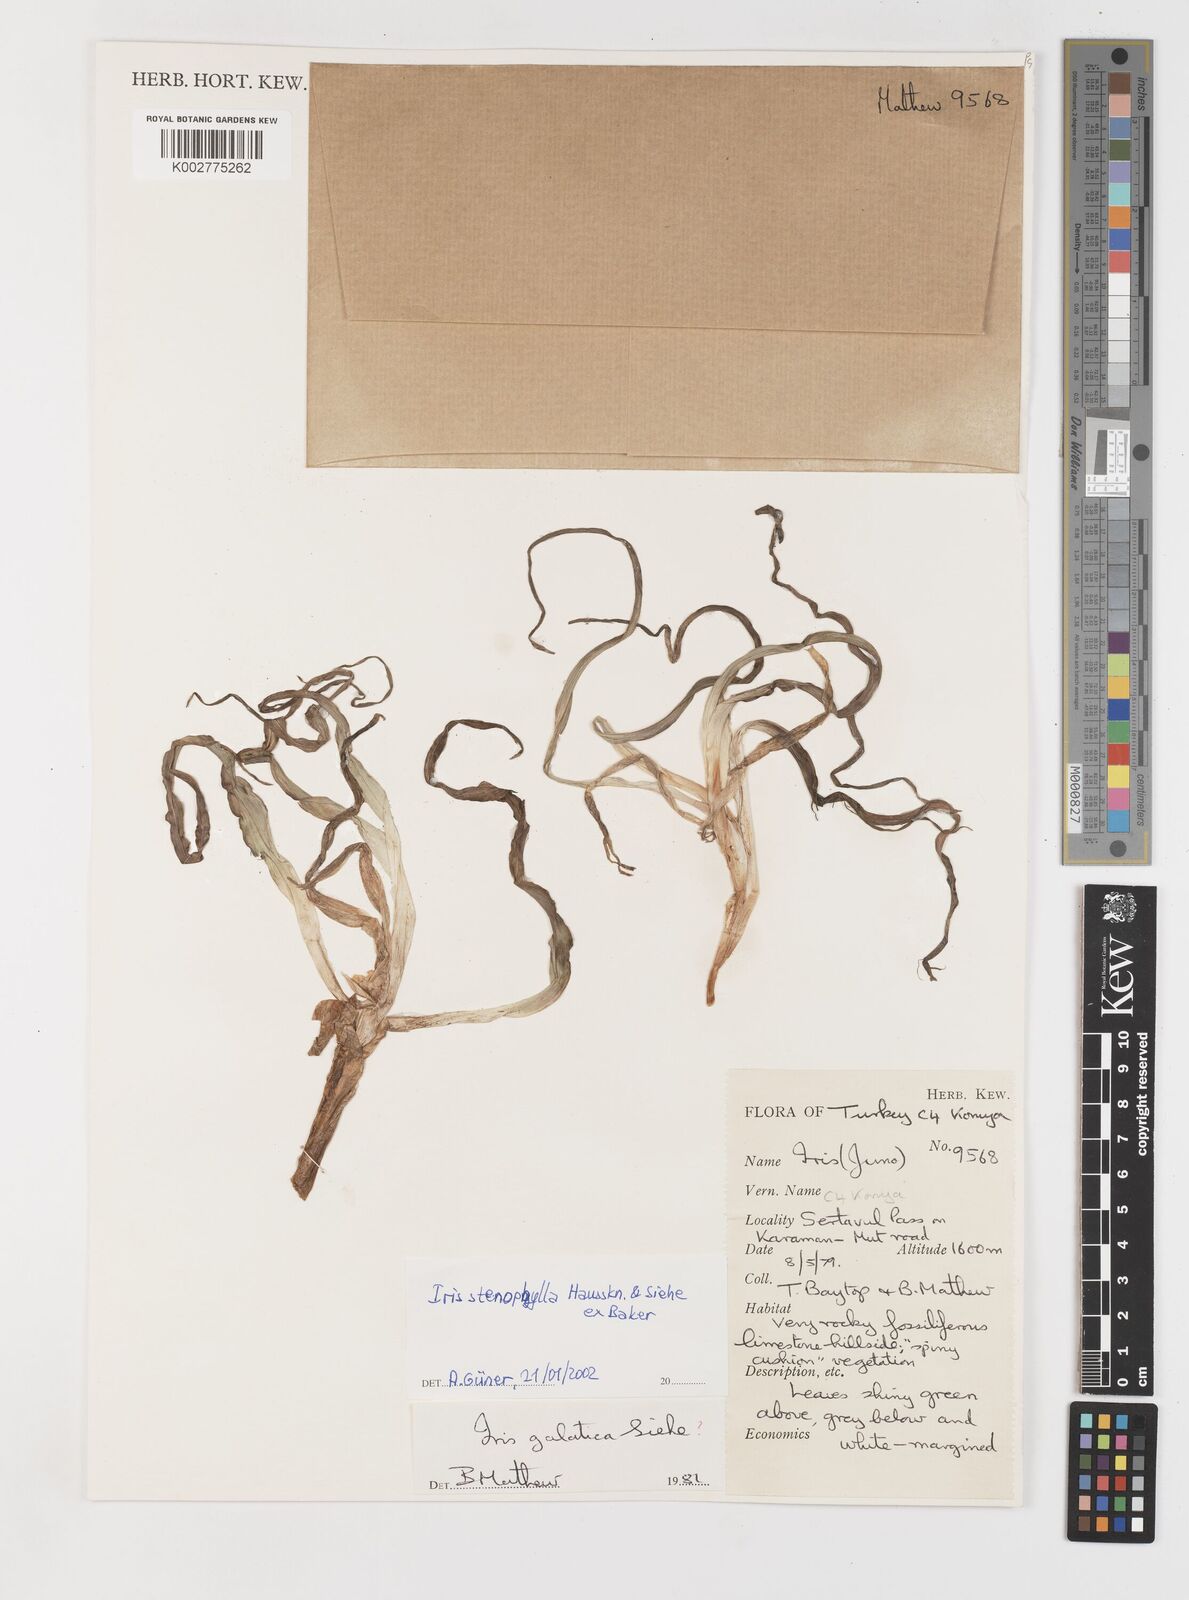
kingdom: Plantae
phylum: Tracheophyta
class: Liliopsida
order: Asparagales
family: Iridaceae
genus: Iris
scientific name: Iris stenophylla
